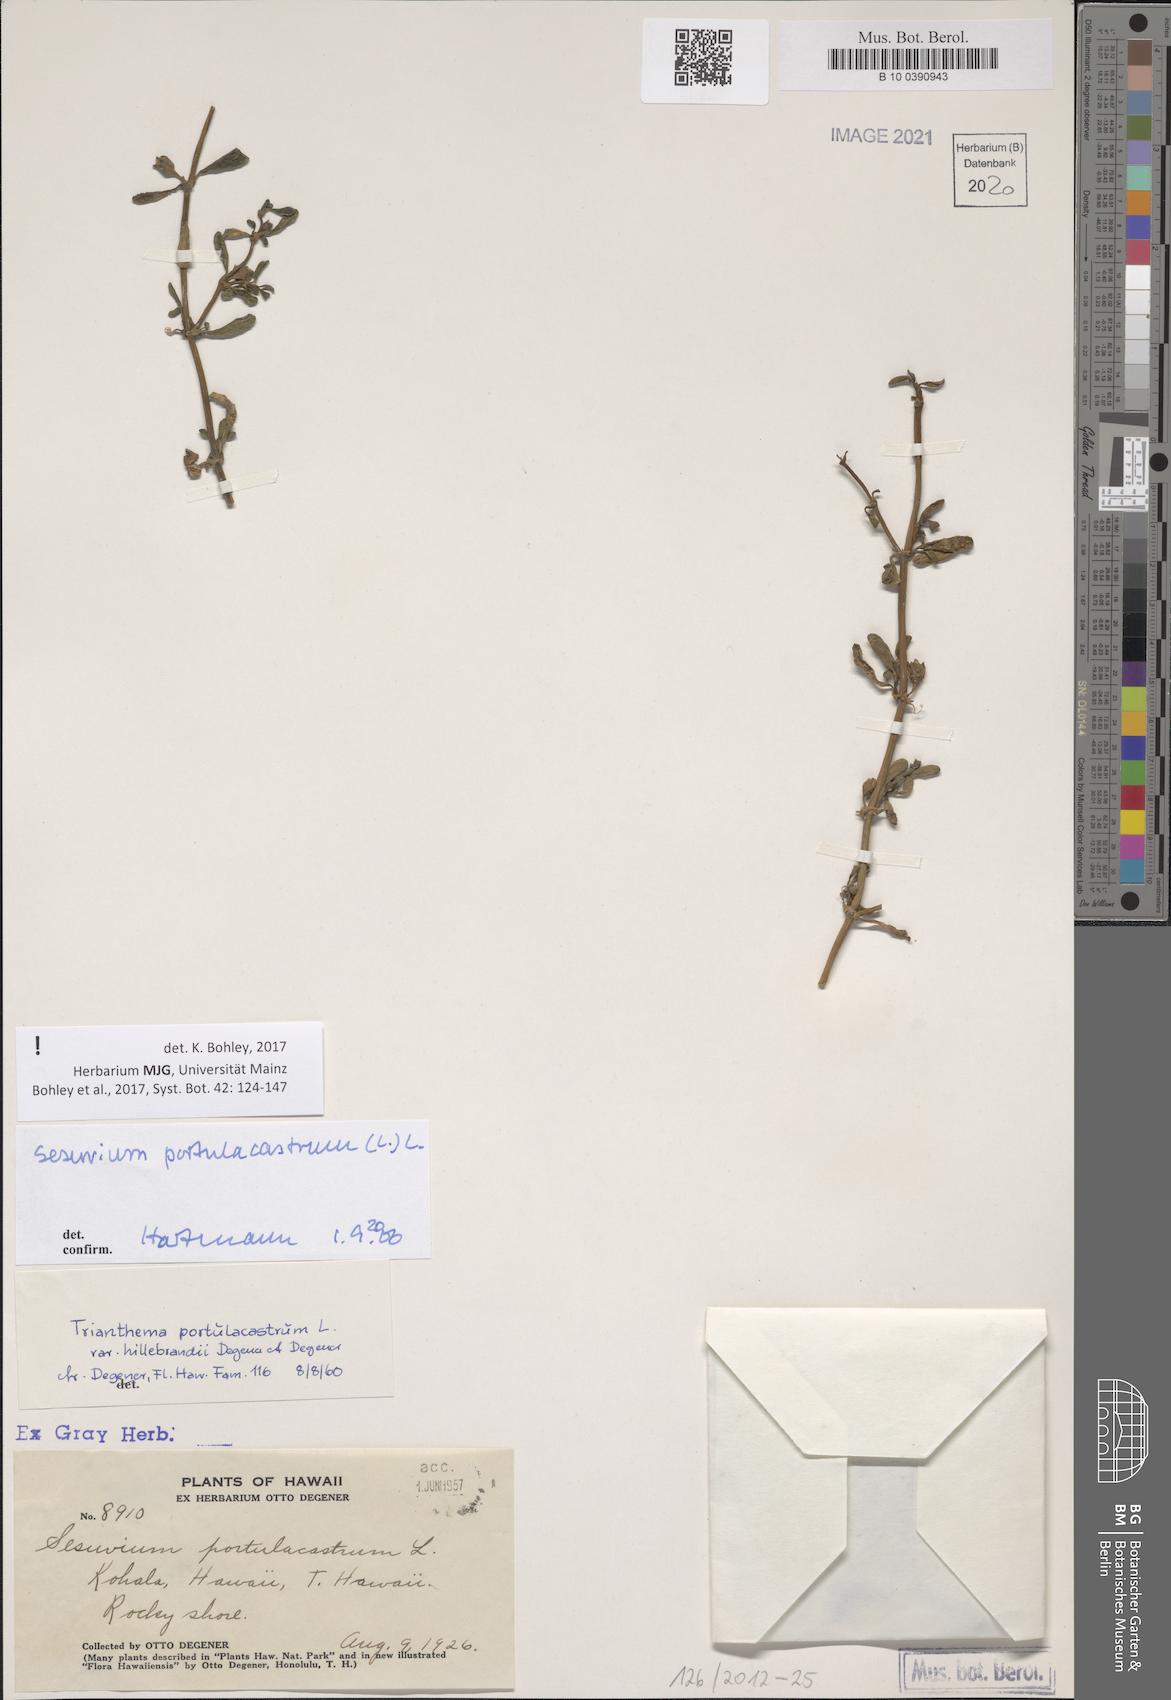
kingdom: Plantae
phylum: Tracheophyta
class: Magnoliopsida
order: Caryophyllales
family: Aizoaceae
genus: Sesuvium
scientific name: Sesuvium portulacastrum
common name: Sea-purslane
